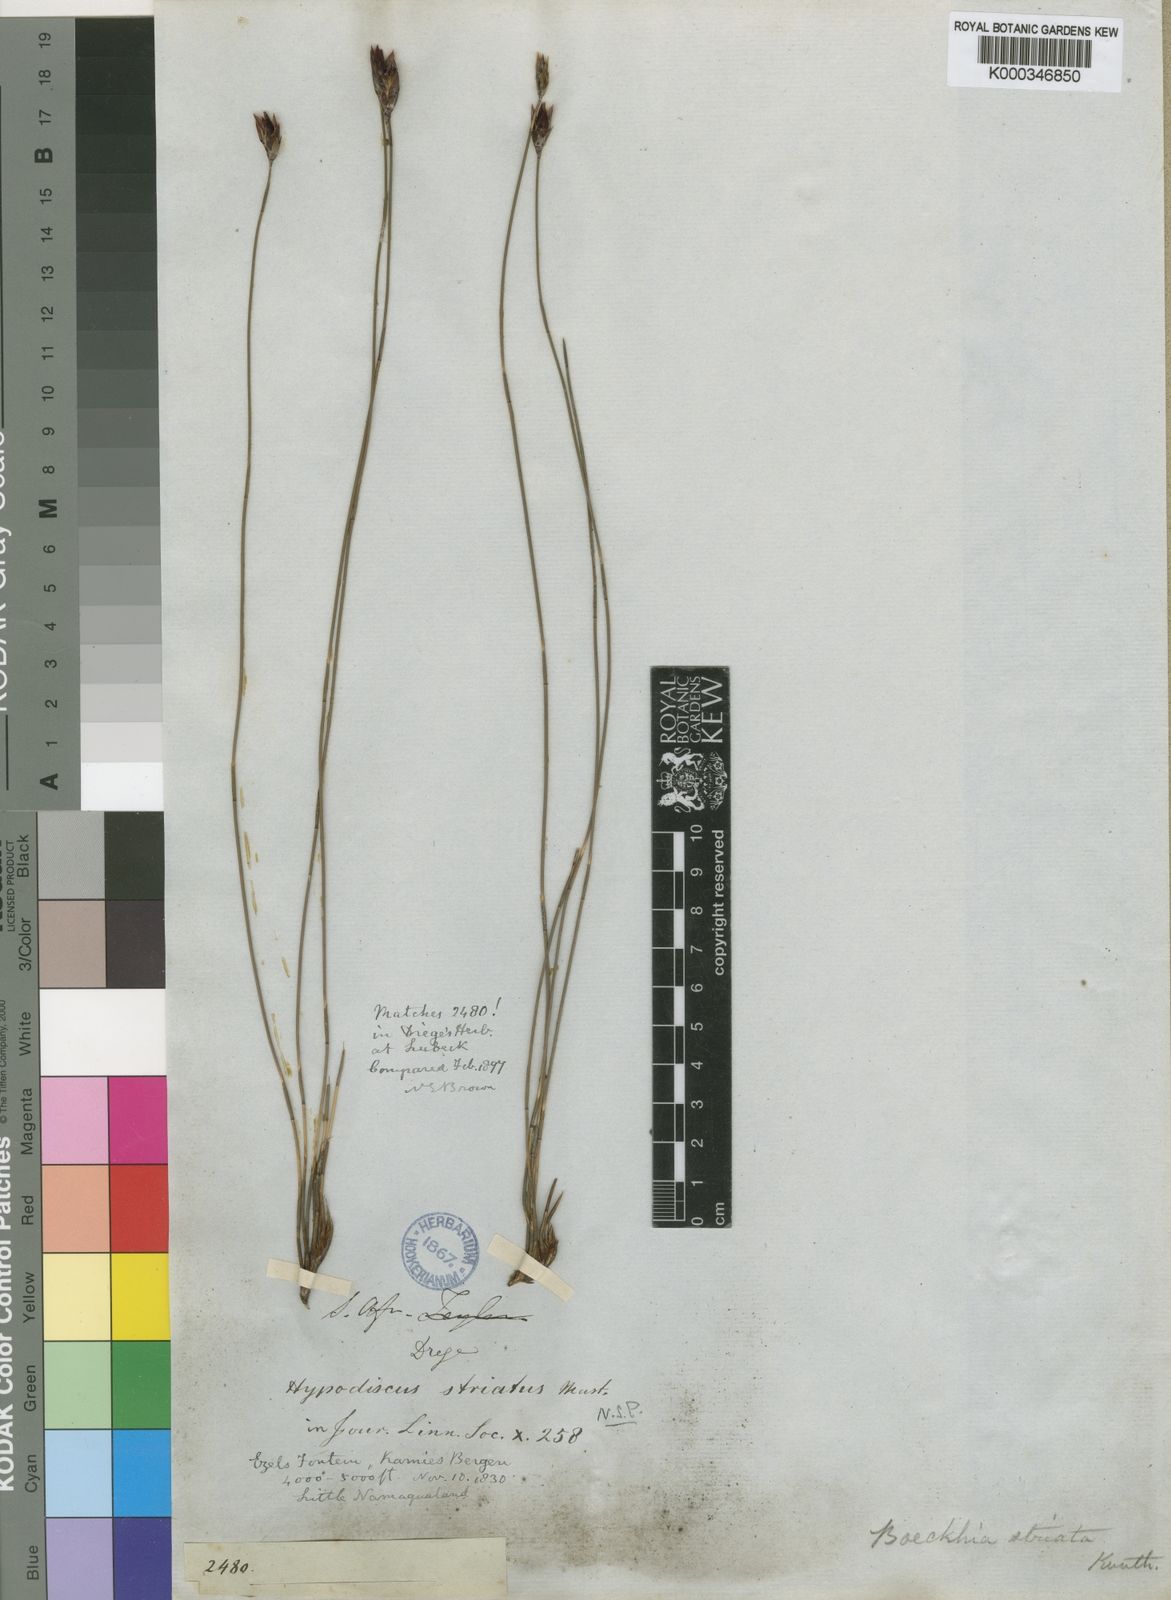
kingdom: Plantae
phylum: Tracheophyta
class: Liliopsida
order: Poales
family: Restionaceae
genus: Hypodiscus
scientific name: Hypodiscus striatus
